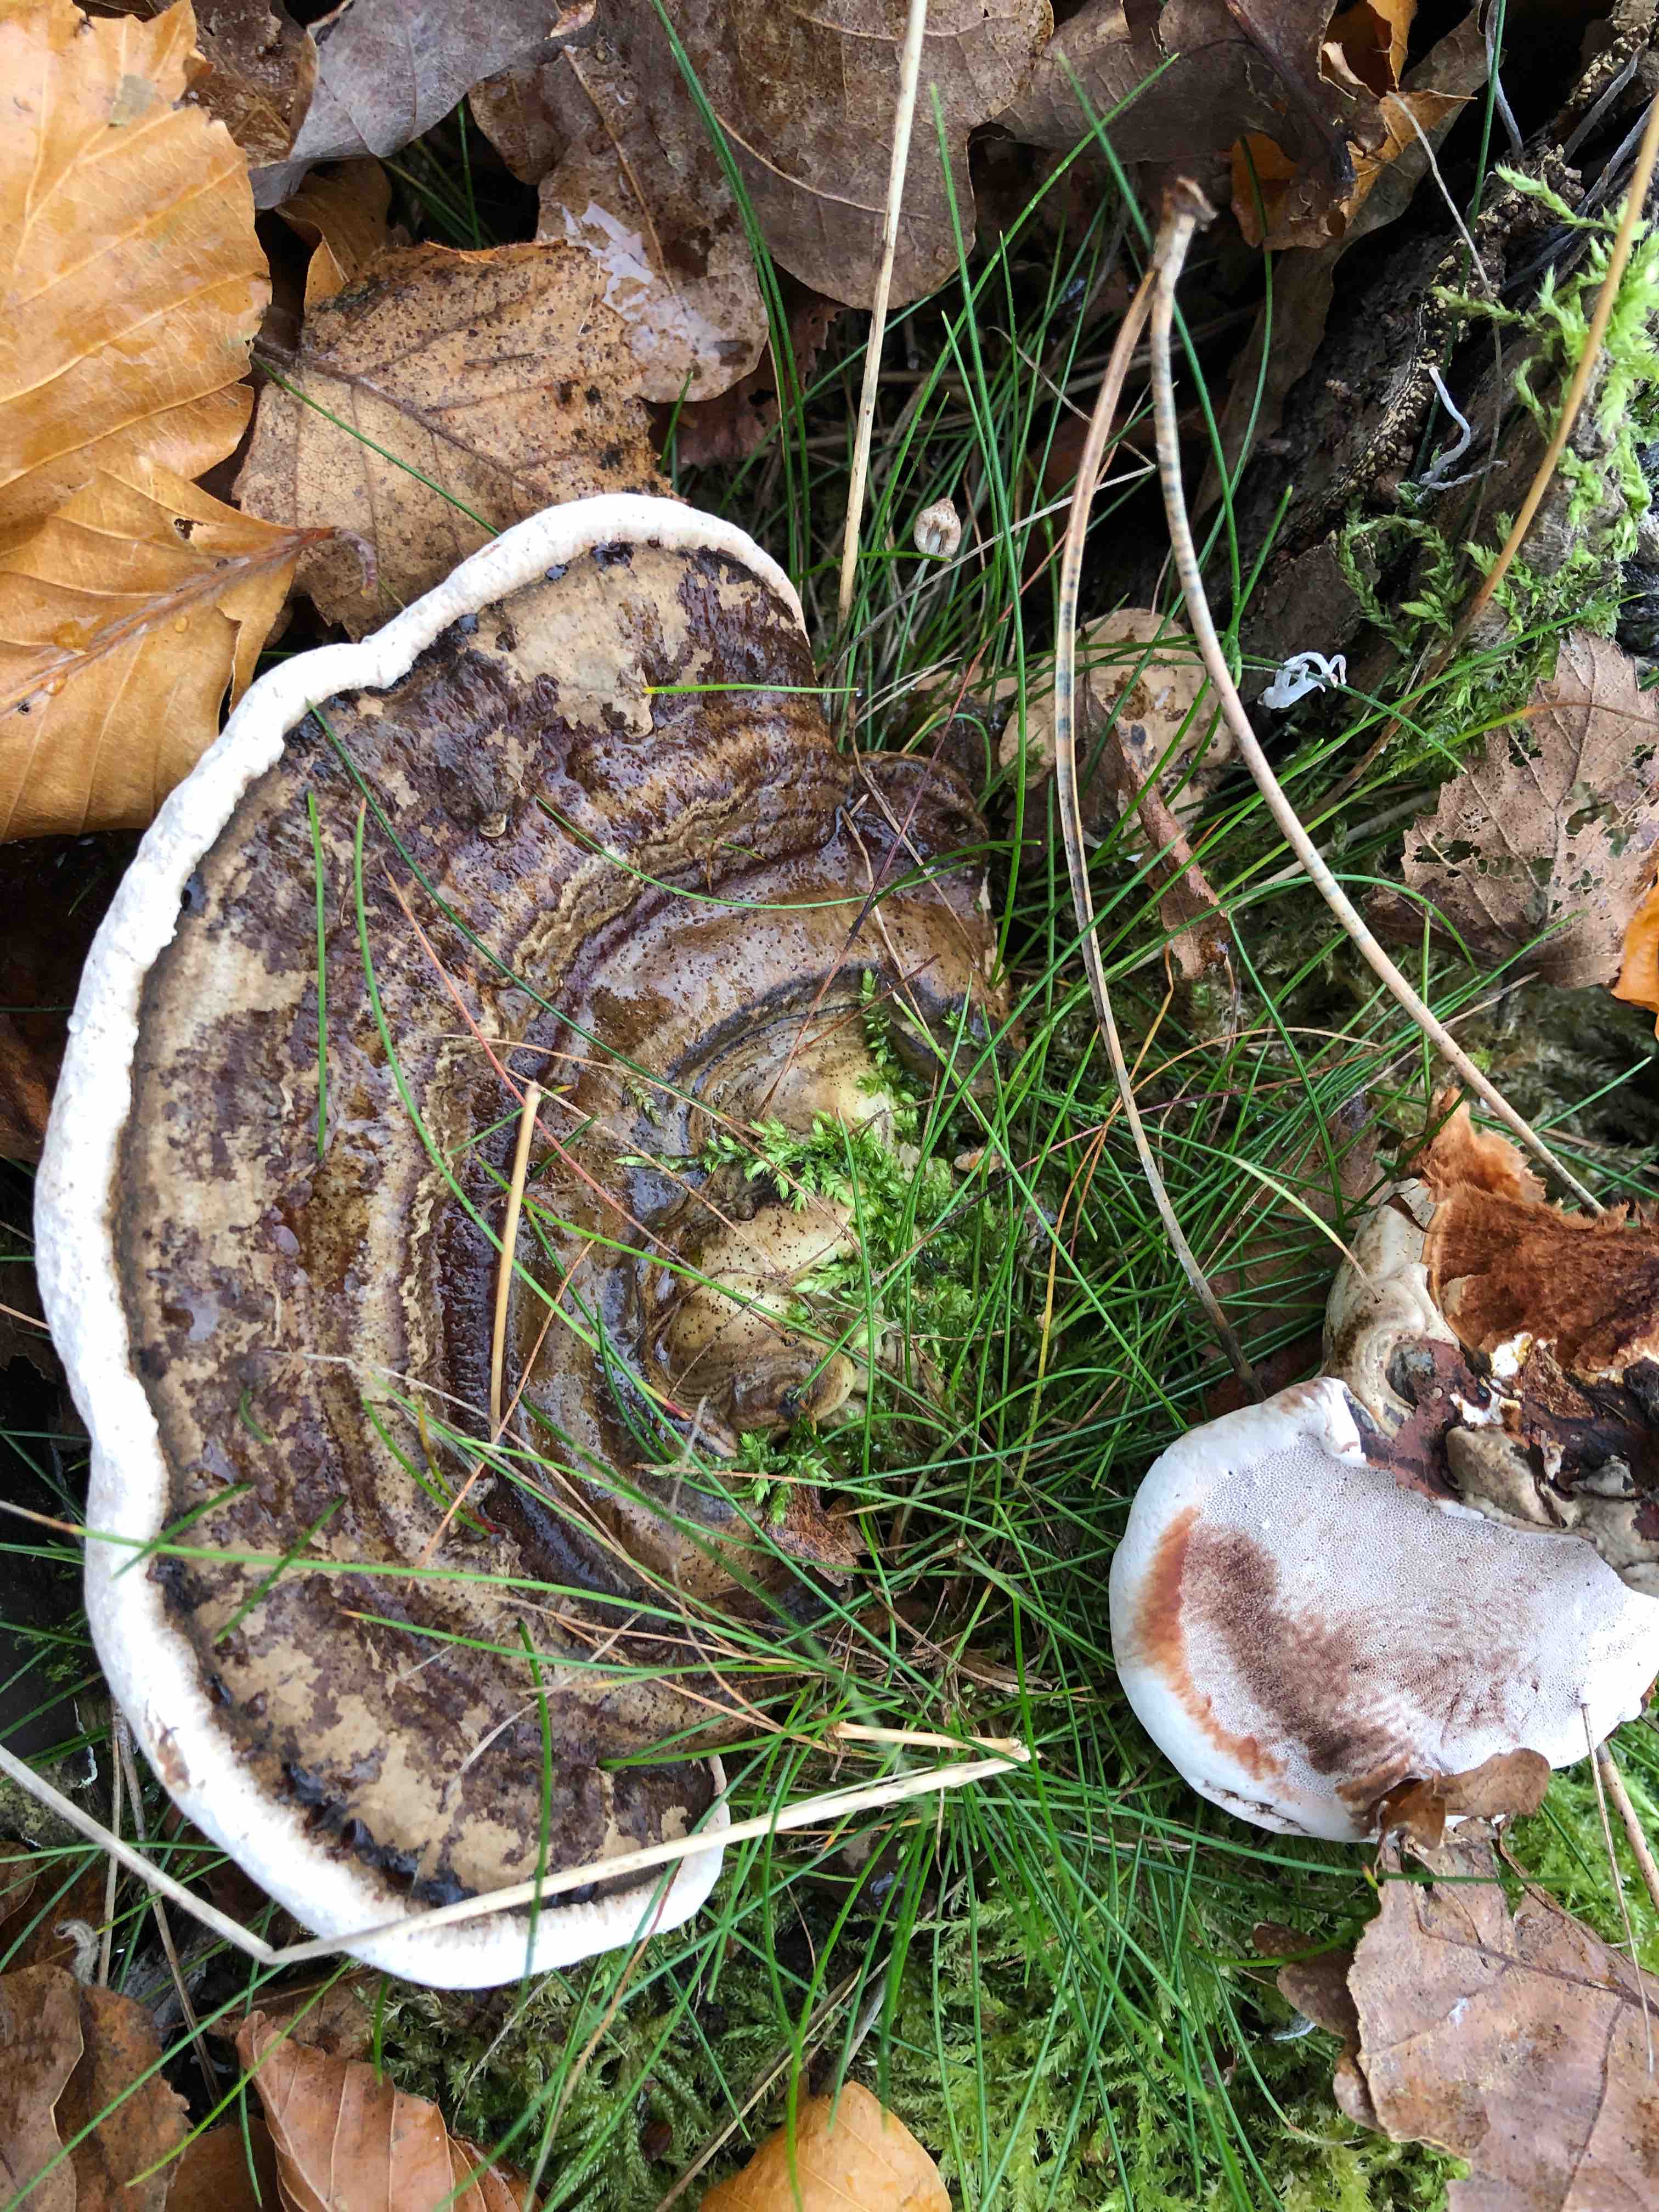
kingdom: Fungi
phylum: Basidiomycota
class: Agaricomycetes
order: Polyporales
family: Polyporaceae
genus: Ganoderma
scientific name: Ganoderma applanatum
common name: flad lakporesvamp
